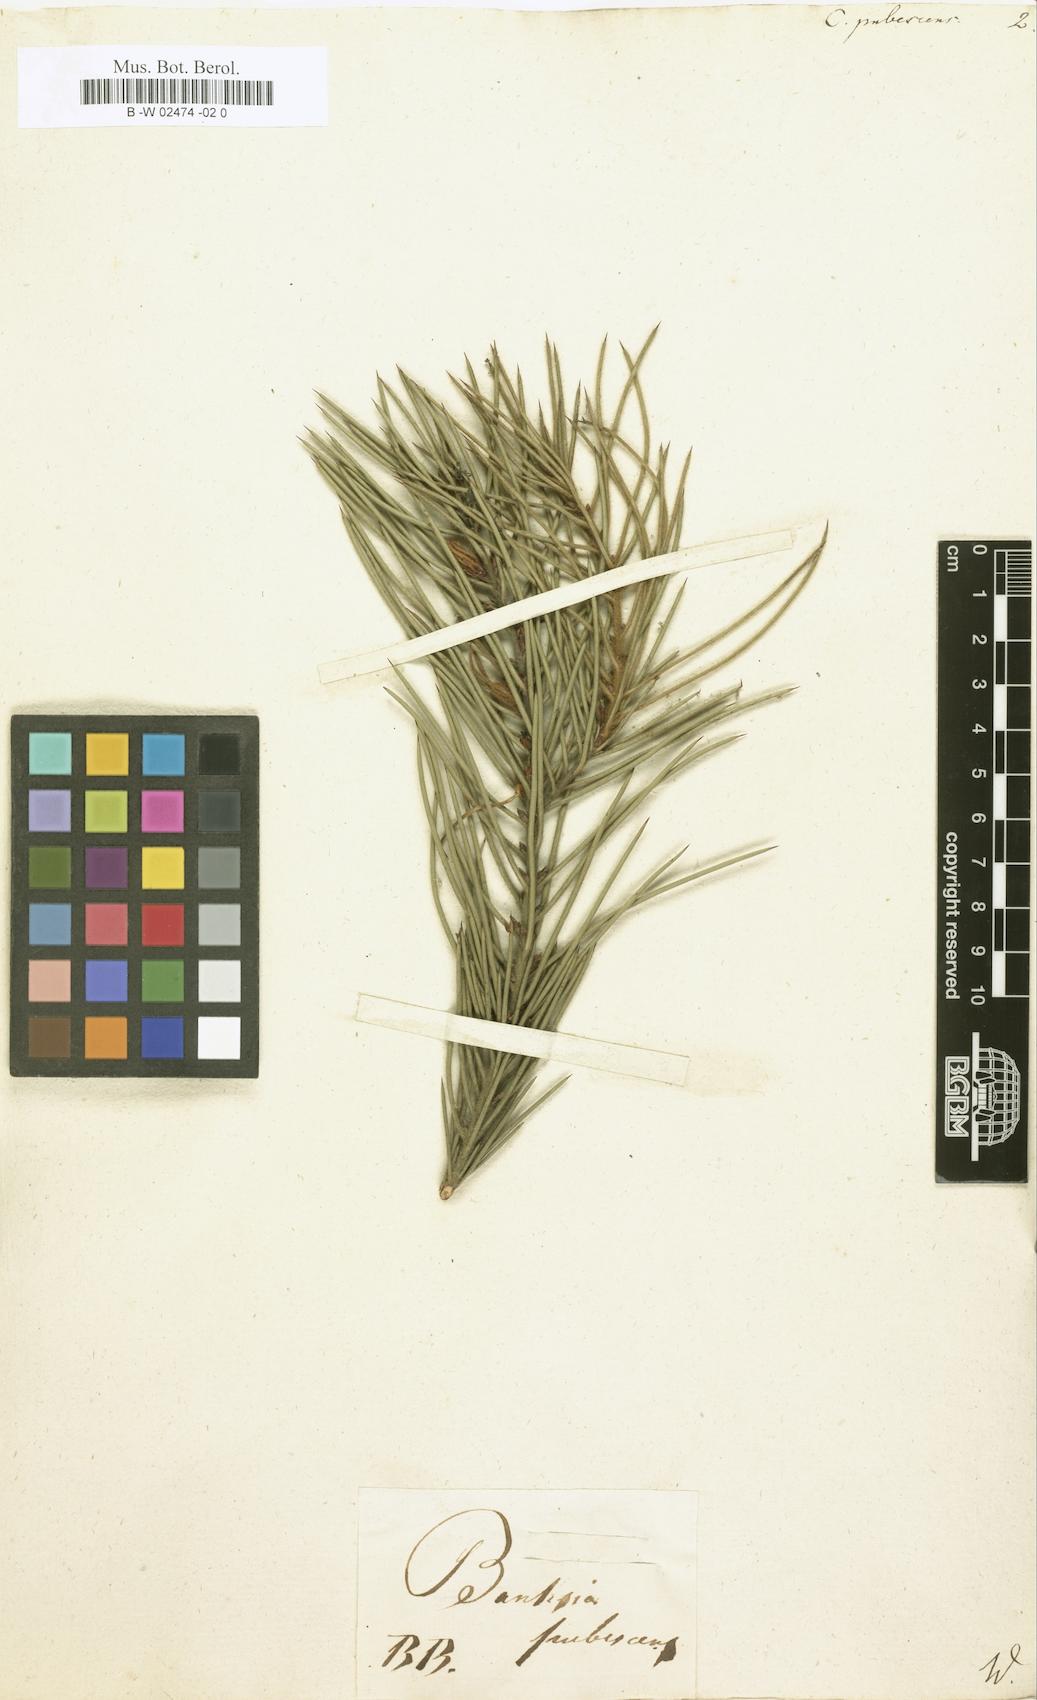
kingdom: Plantae
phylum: Tracheophyta
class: Magnoliopsida
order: Proteales
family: Proteaceae
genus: Hakea
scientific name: Hakea gibbosa
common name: Rock hakea
